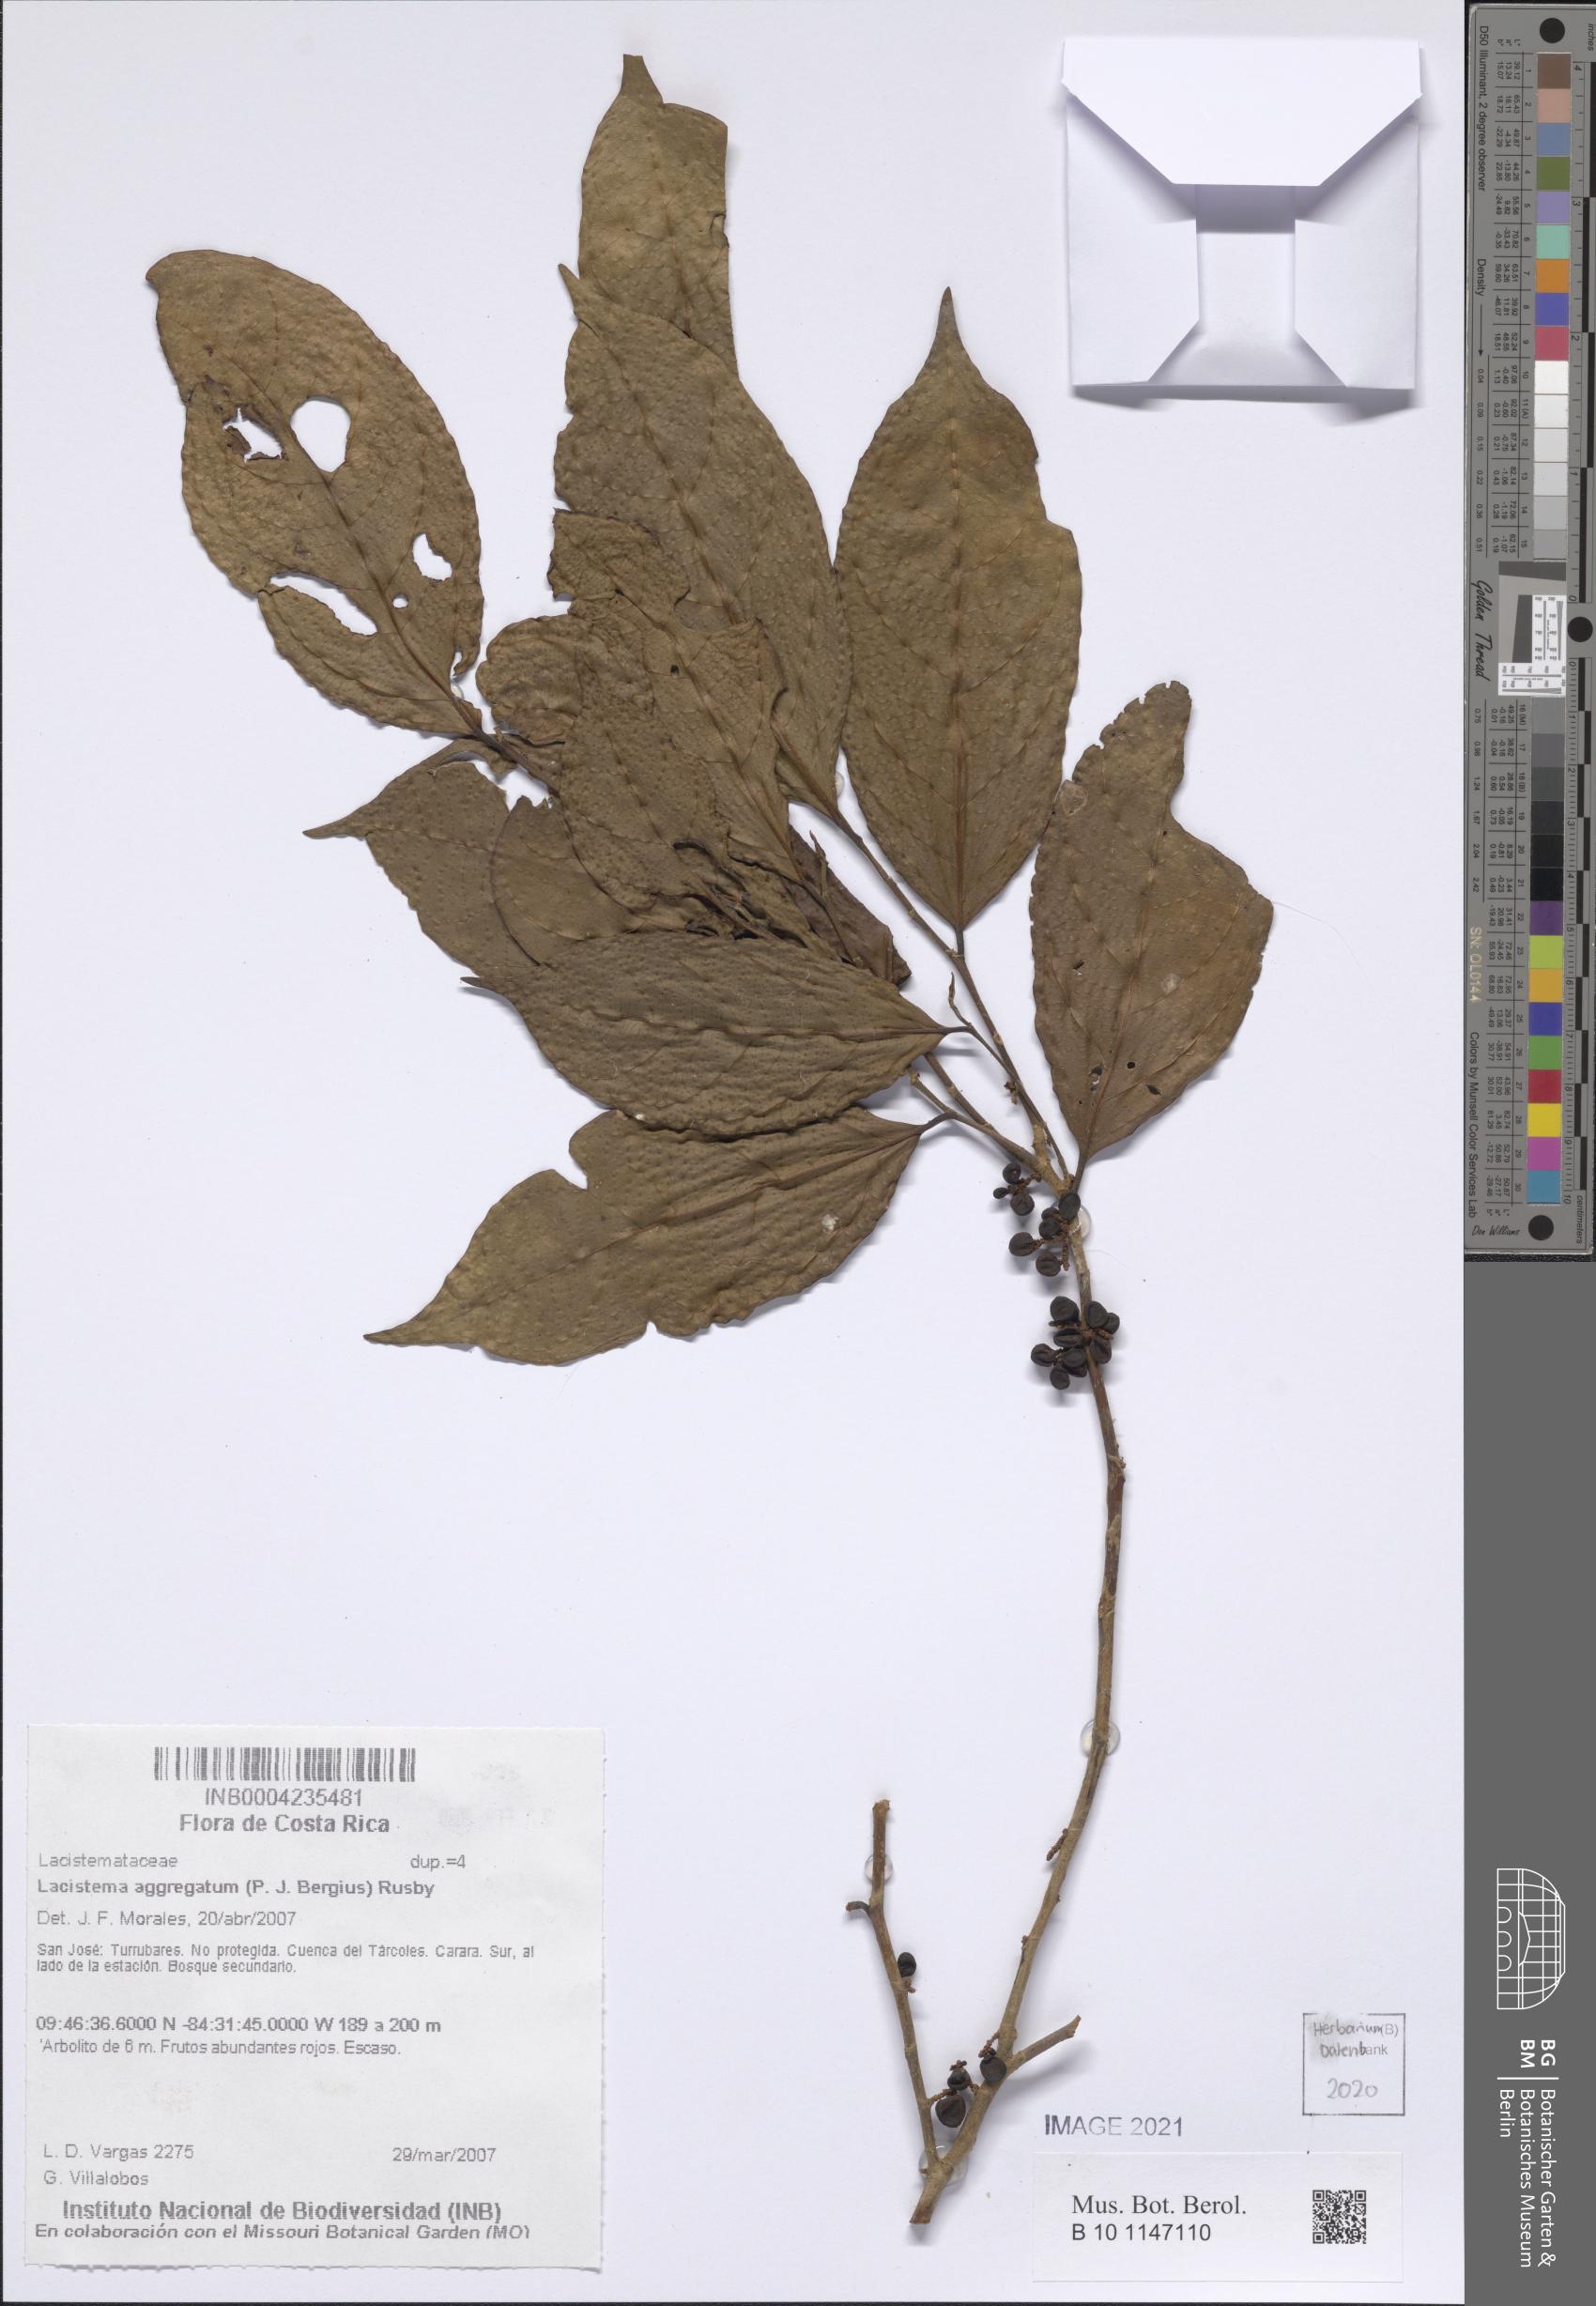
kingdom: Plantae
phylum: Tracheophyta
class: Magnoliopsida
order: Malpighiales
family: Lacistemataceae
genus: Lacistema
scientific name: Lacistema aggregatum
